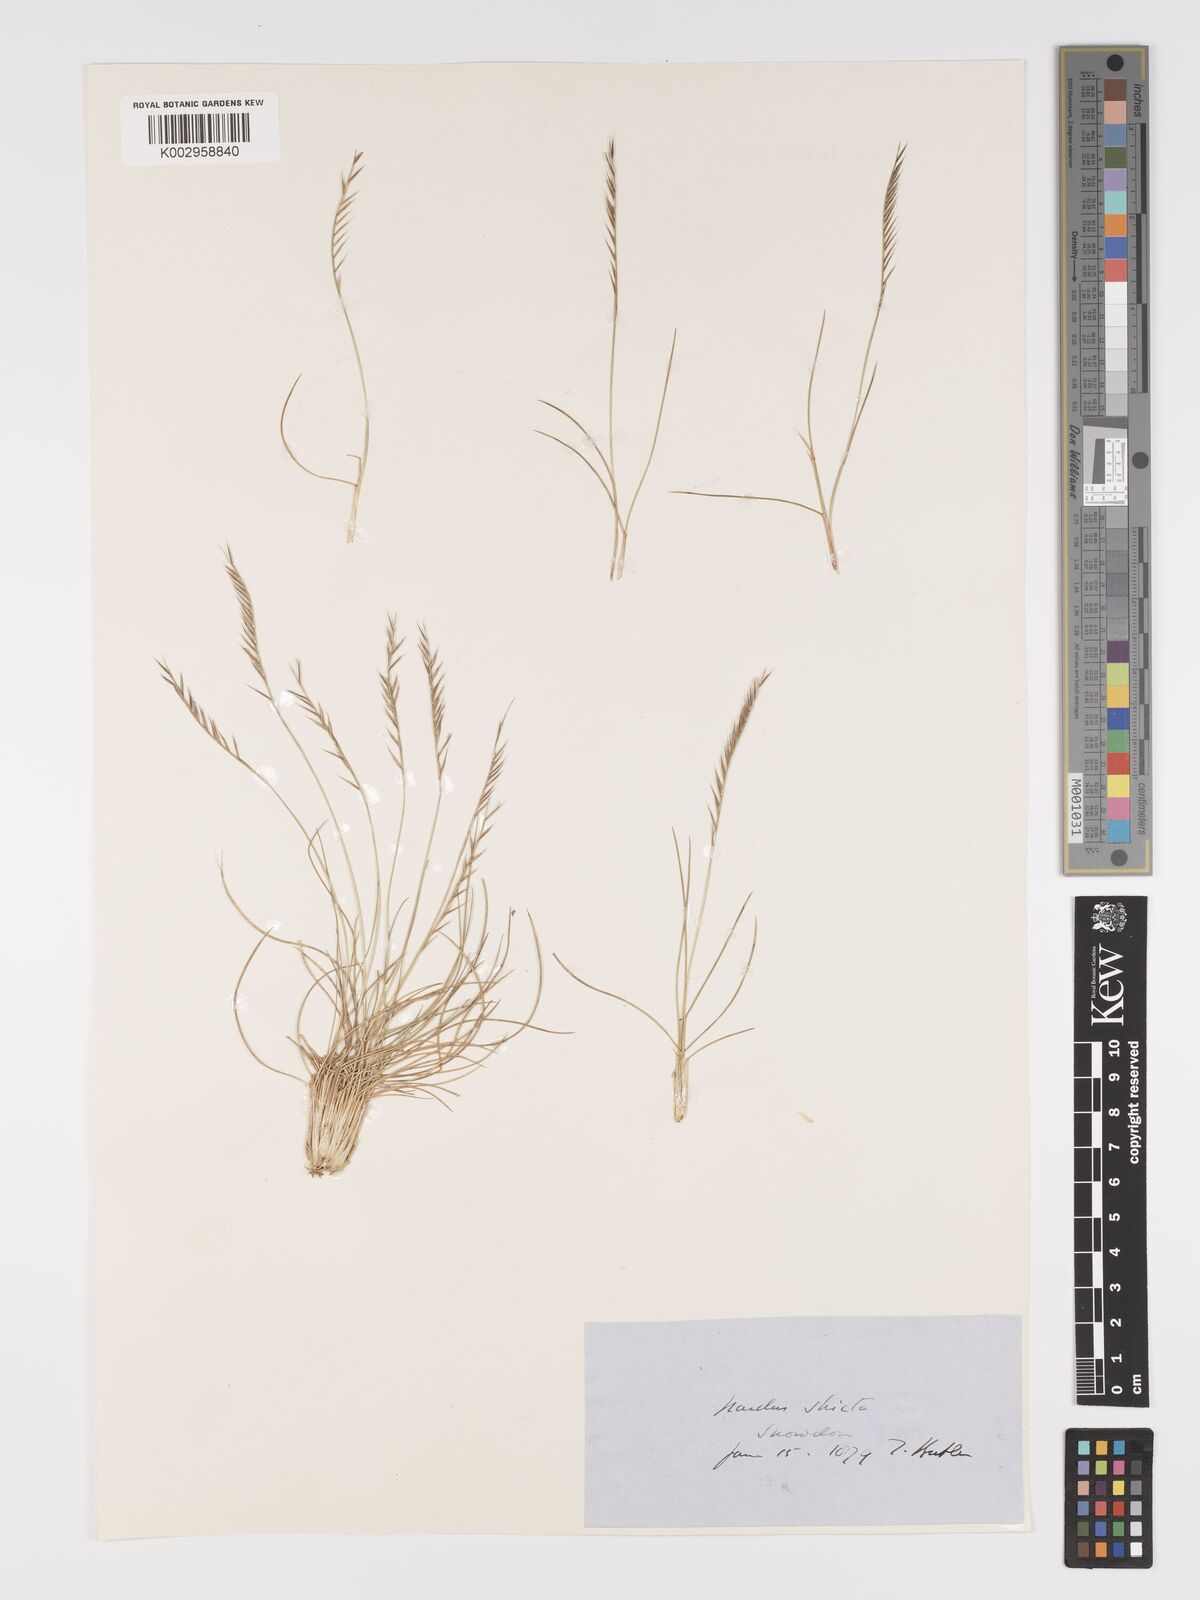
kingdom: Plantae
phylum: Tracheophyta
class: Liliopsida
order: Poales
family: Poaceae
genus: Nardus
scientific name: Nardus stricta
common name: Mat-grass
